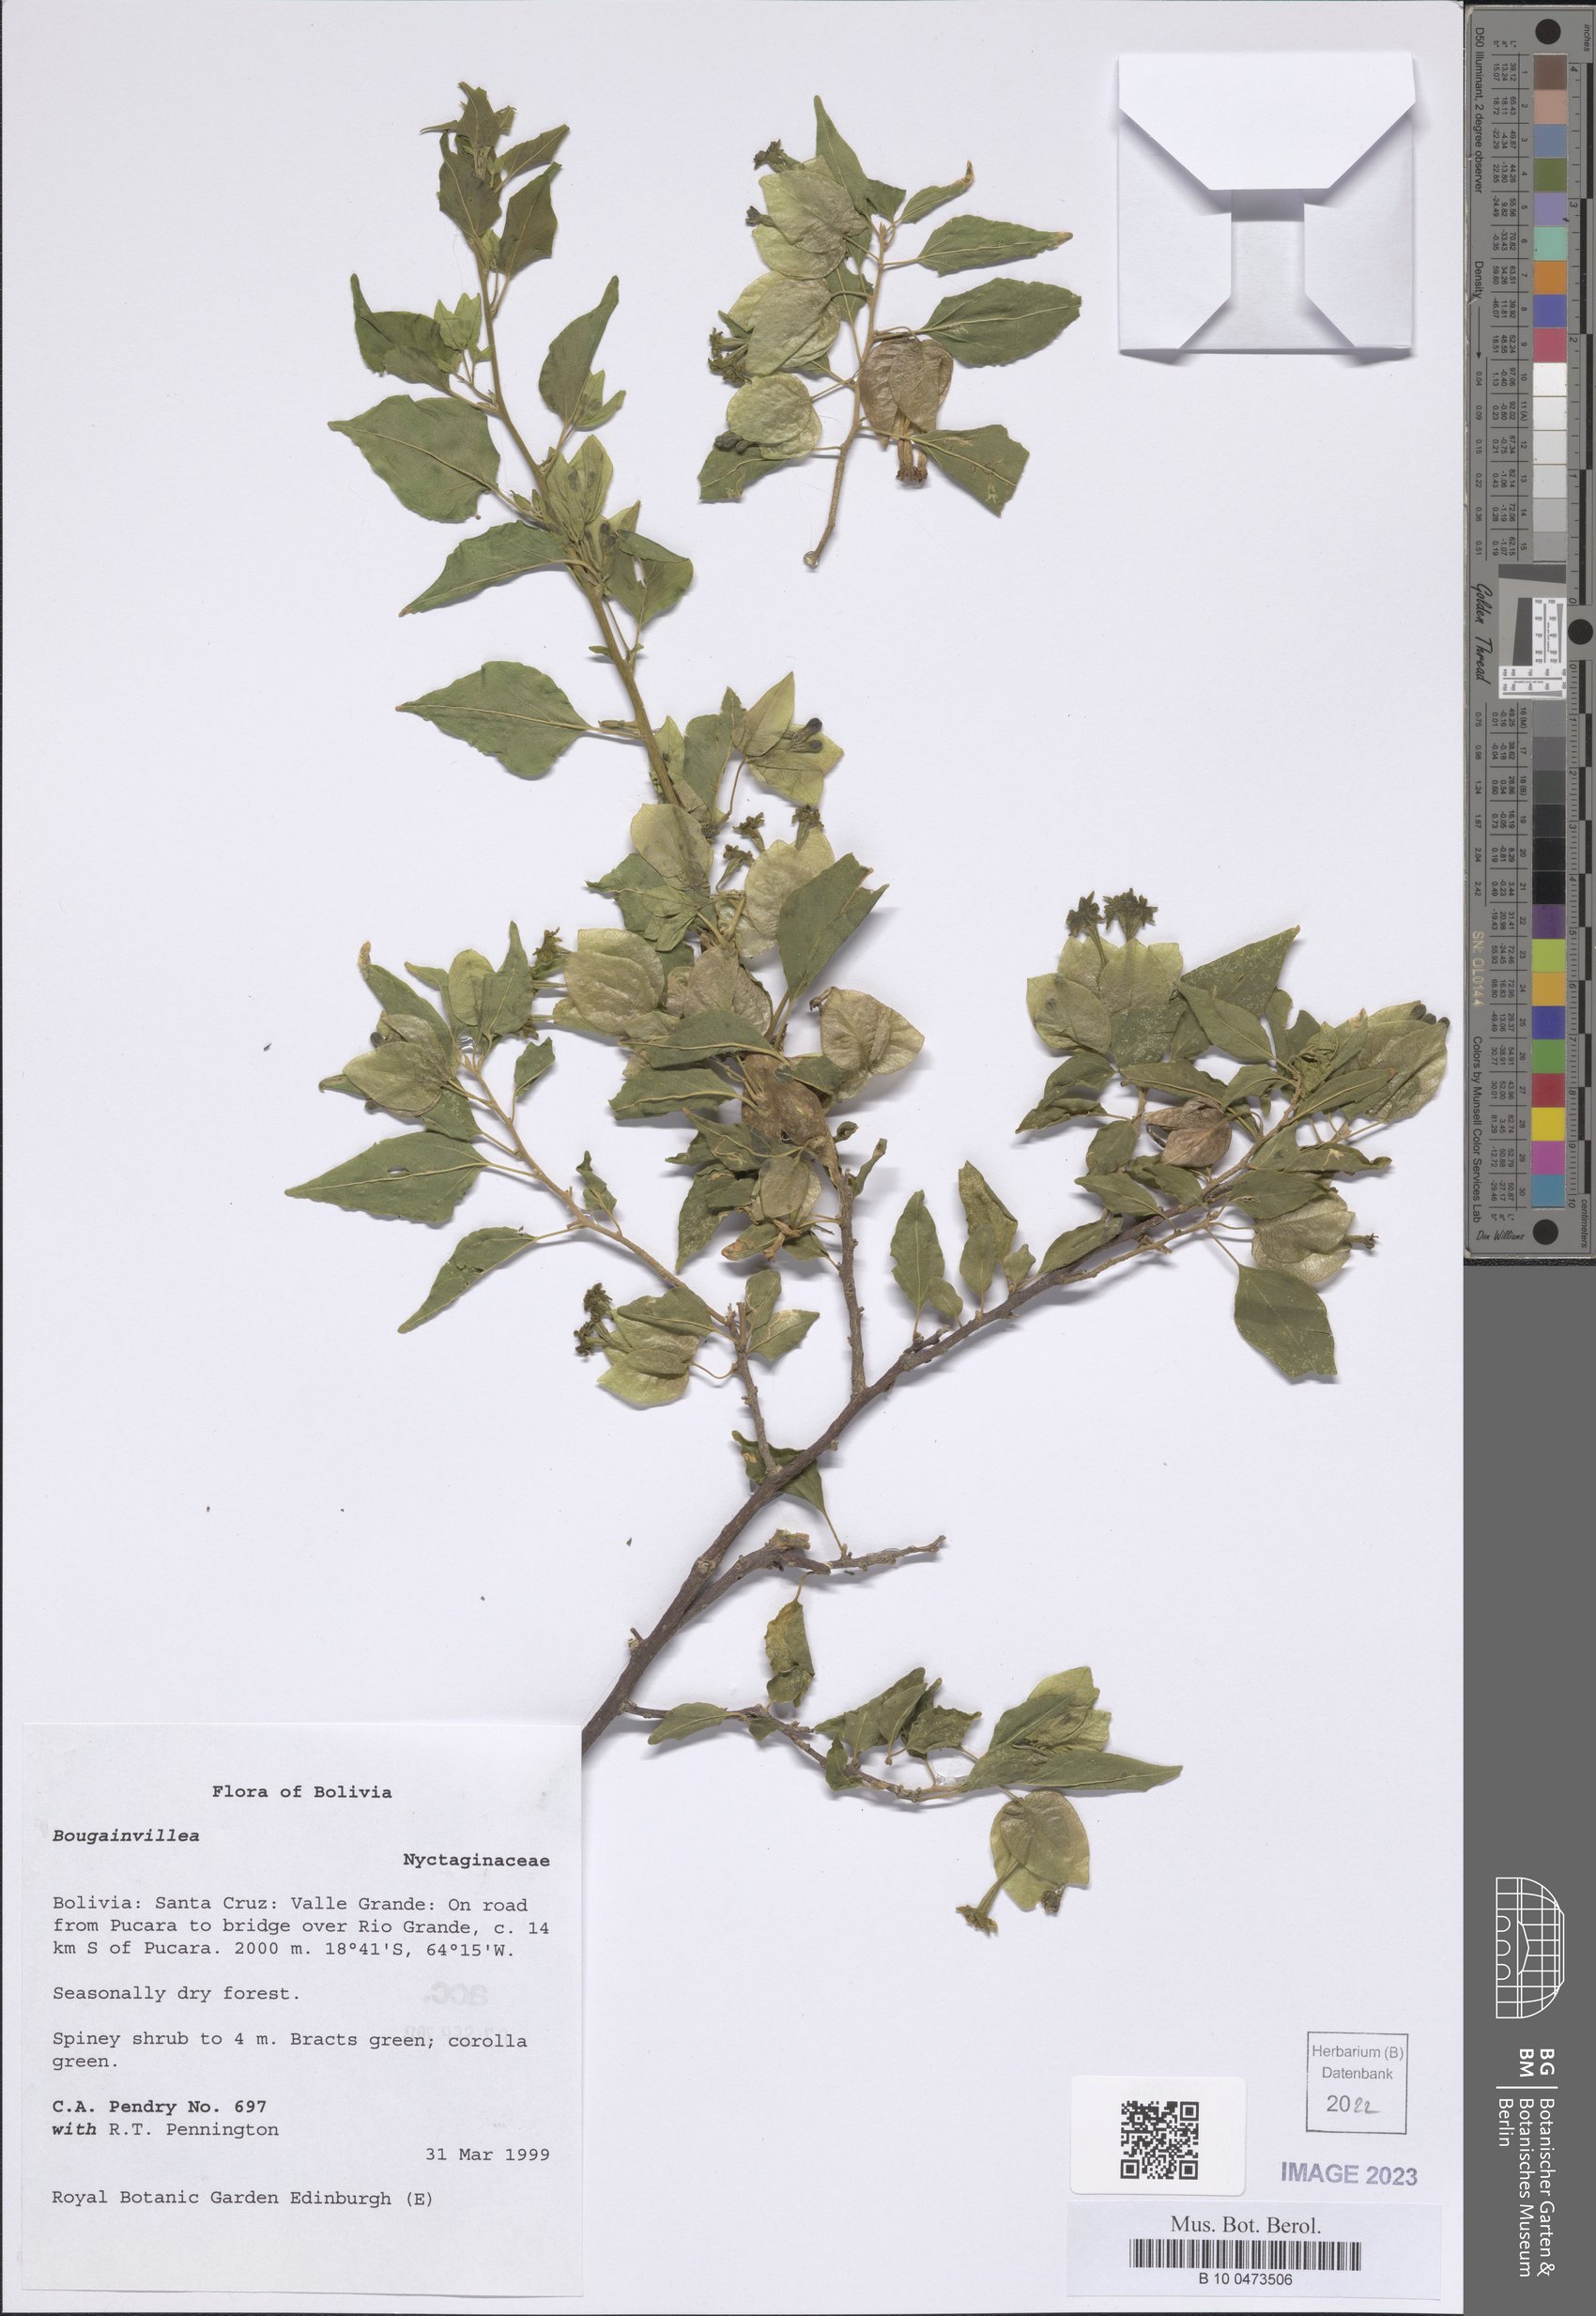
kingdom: Plantae
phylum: Tracheophyta
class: Magnoliopsida
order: Caryophyllales
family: Nyctaginaceae
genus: Bougainvillea
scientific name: Bougainvillea
